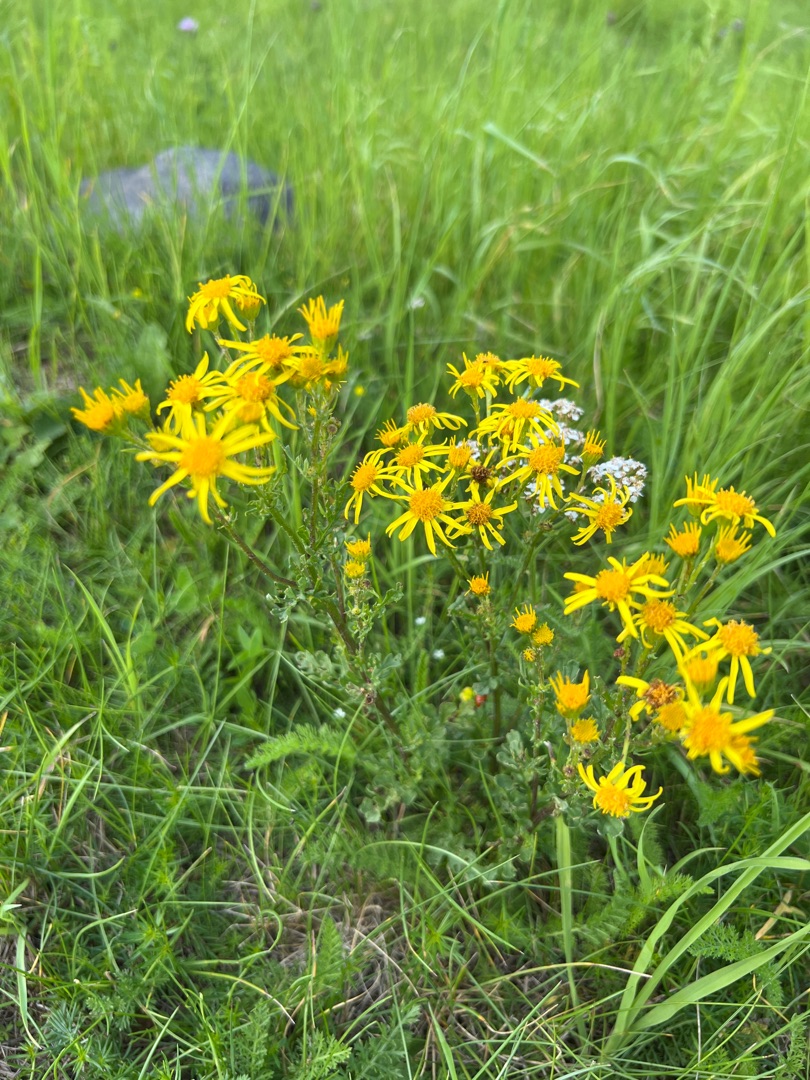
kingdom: Plantae
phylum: Tracheophyta
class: Magnoliopsida
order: Asterales
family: Asteraceae
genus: Jacobaea
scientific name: Jacobaea vulgaris
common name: Eng-brandbæger
